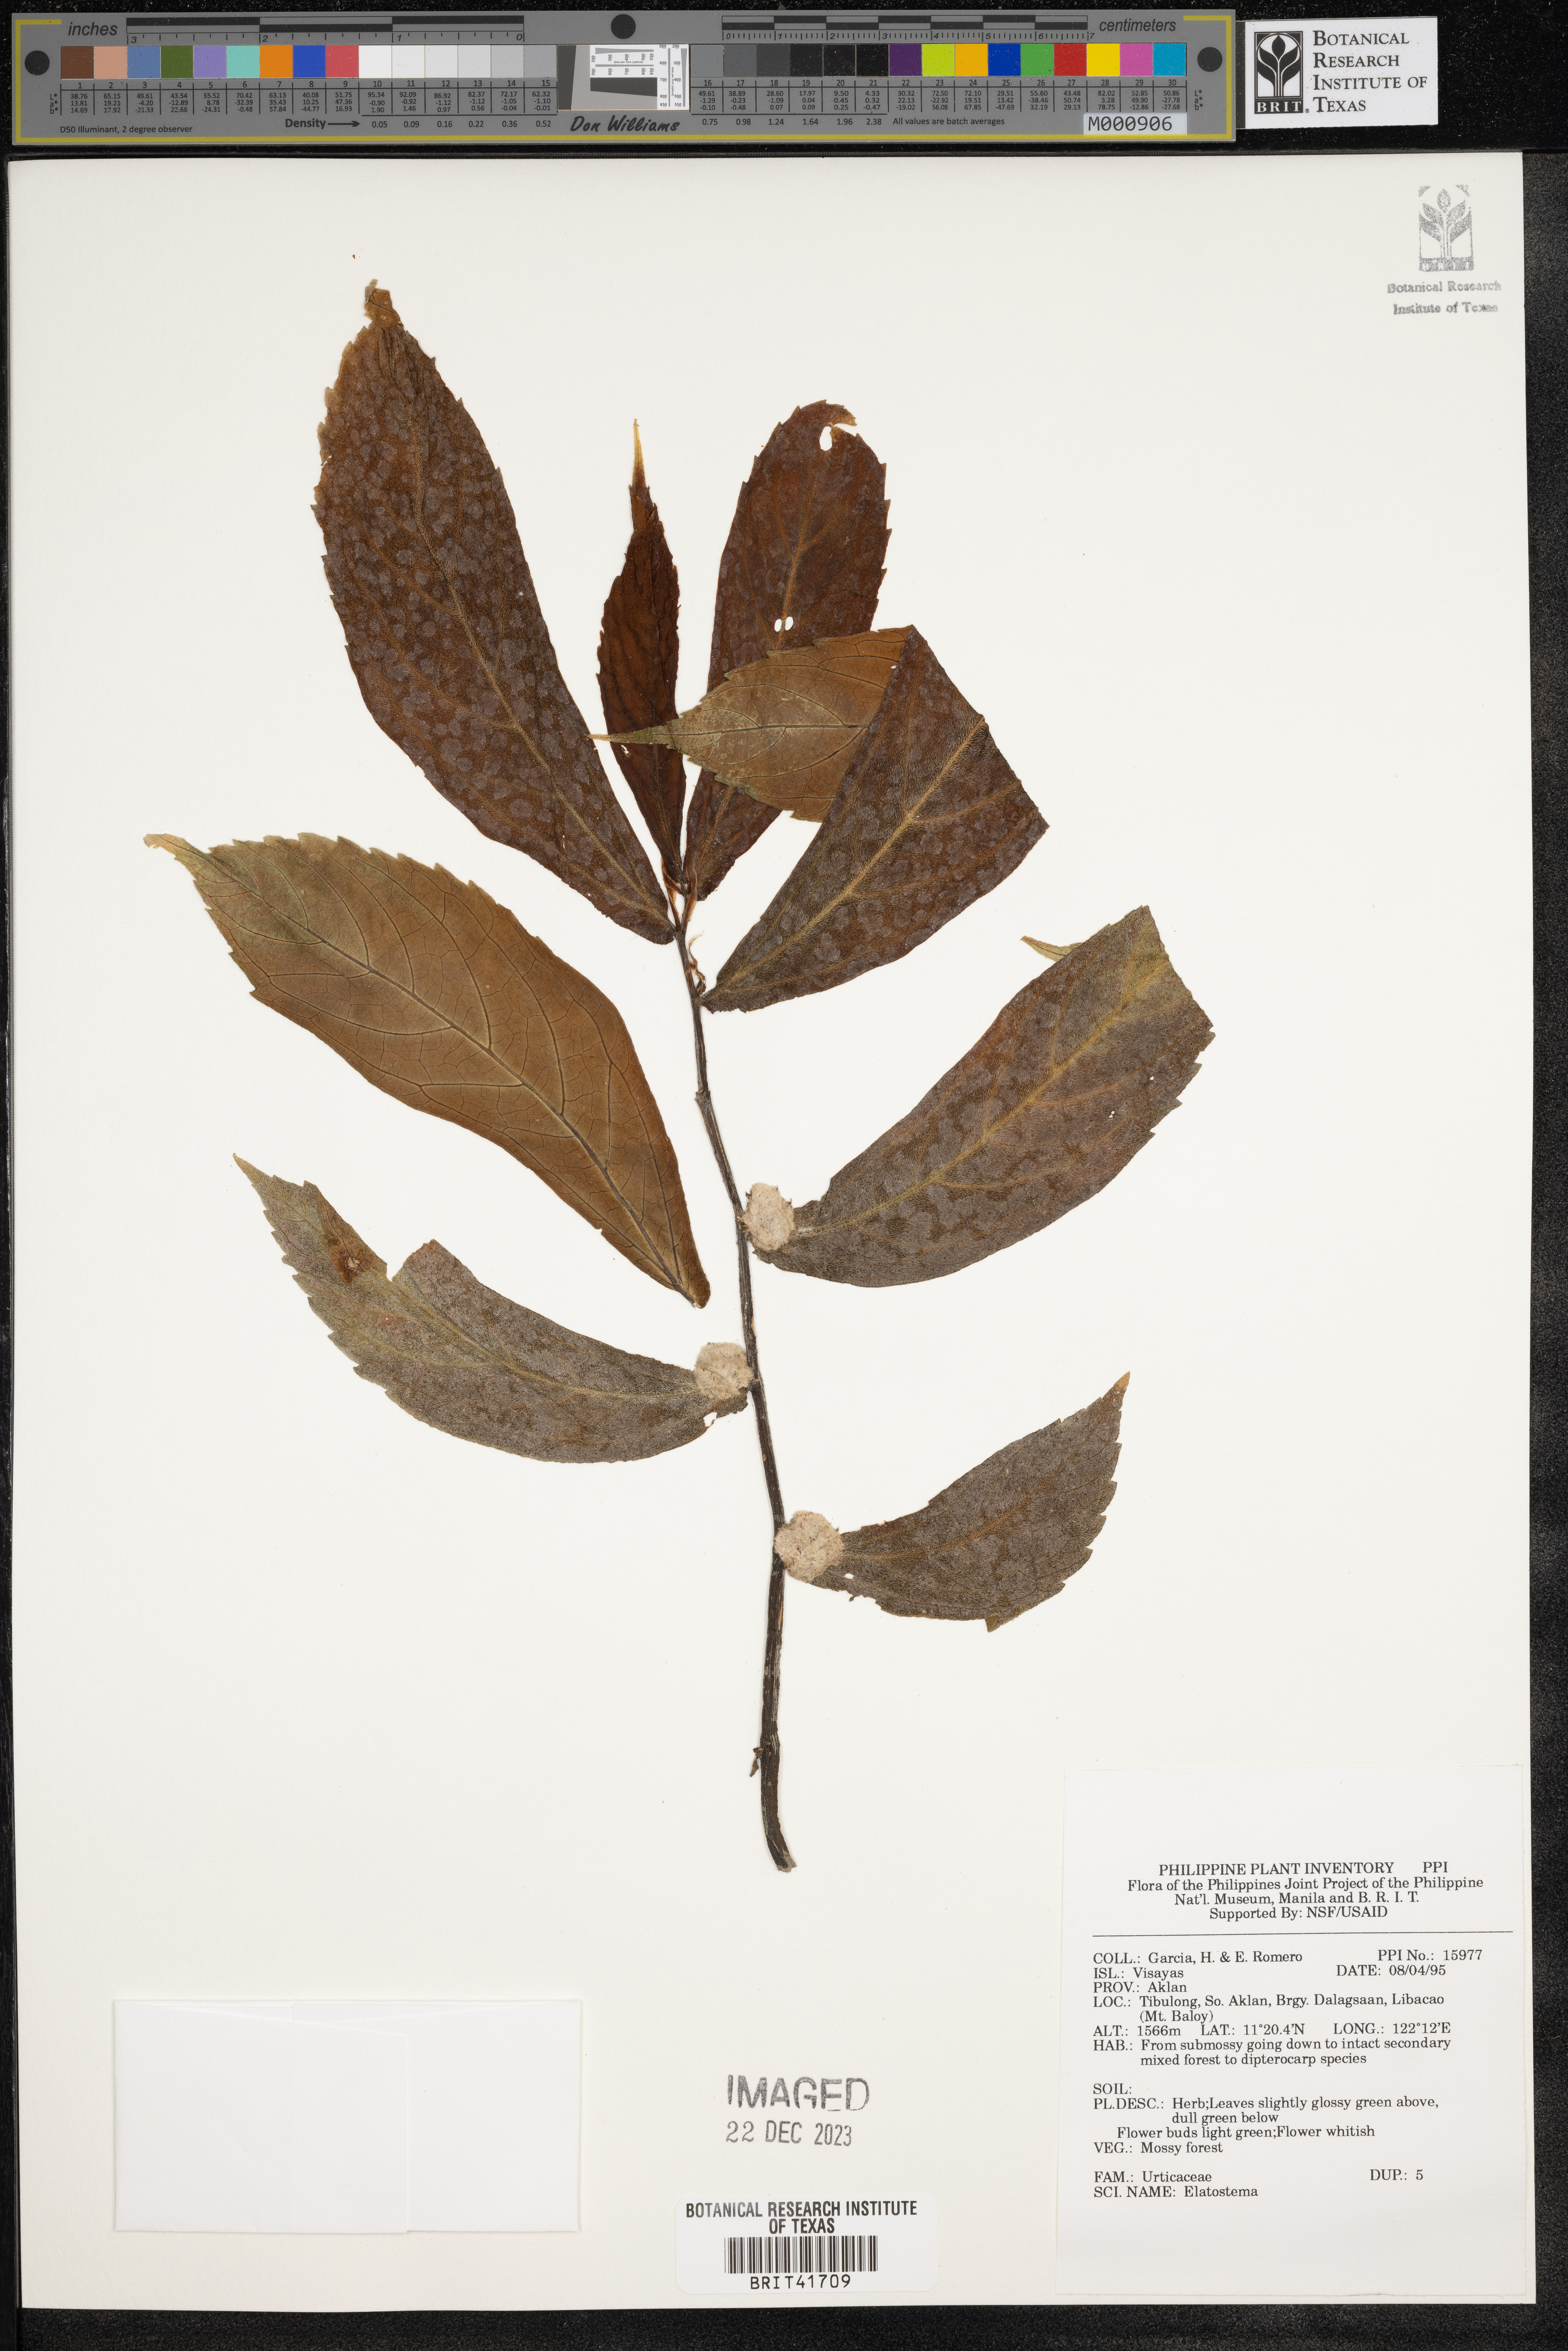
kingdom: Plantae
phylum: Tracheophyta
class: Magnoliopsida
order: Rosales
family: Urticaceae
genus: Elatostema
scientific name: Elatostema
